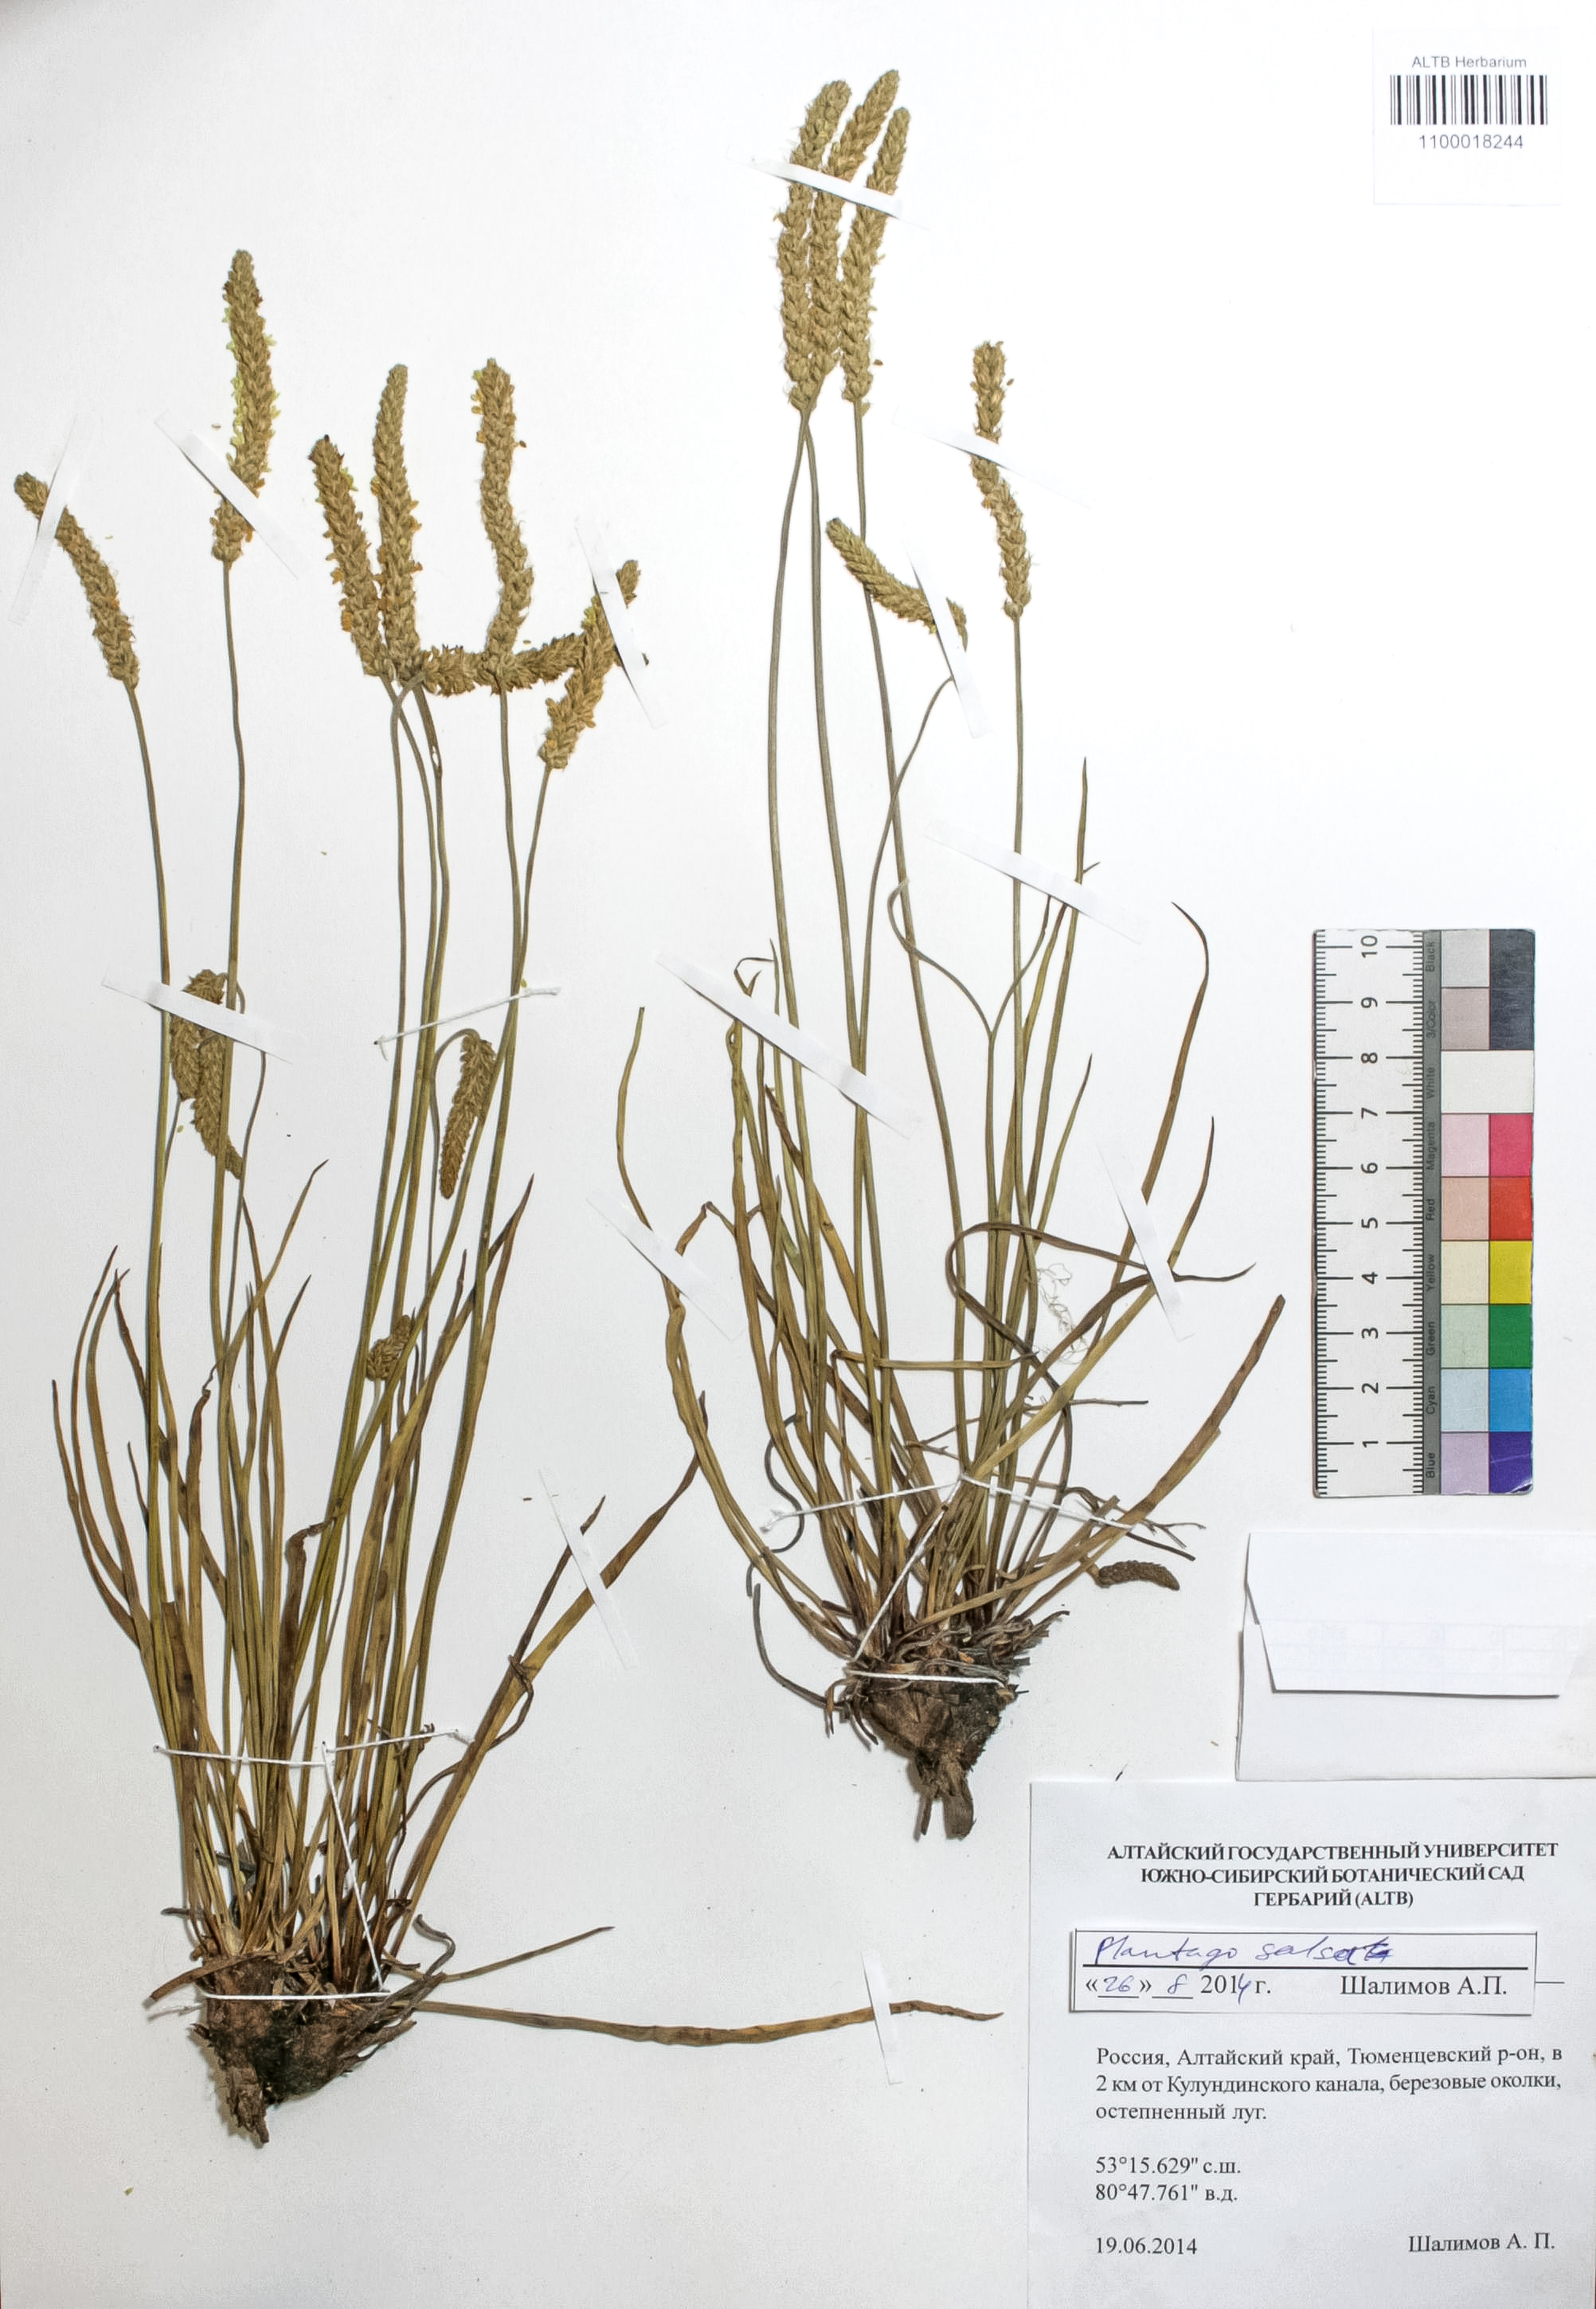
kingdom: Plantae
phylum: Tracheophyta
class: Magnoliopsida
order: Lamiales
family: Plantaginaceae
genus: Plantago
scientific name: Plantago salsa
